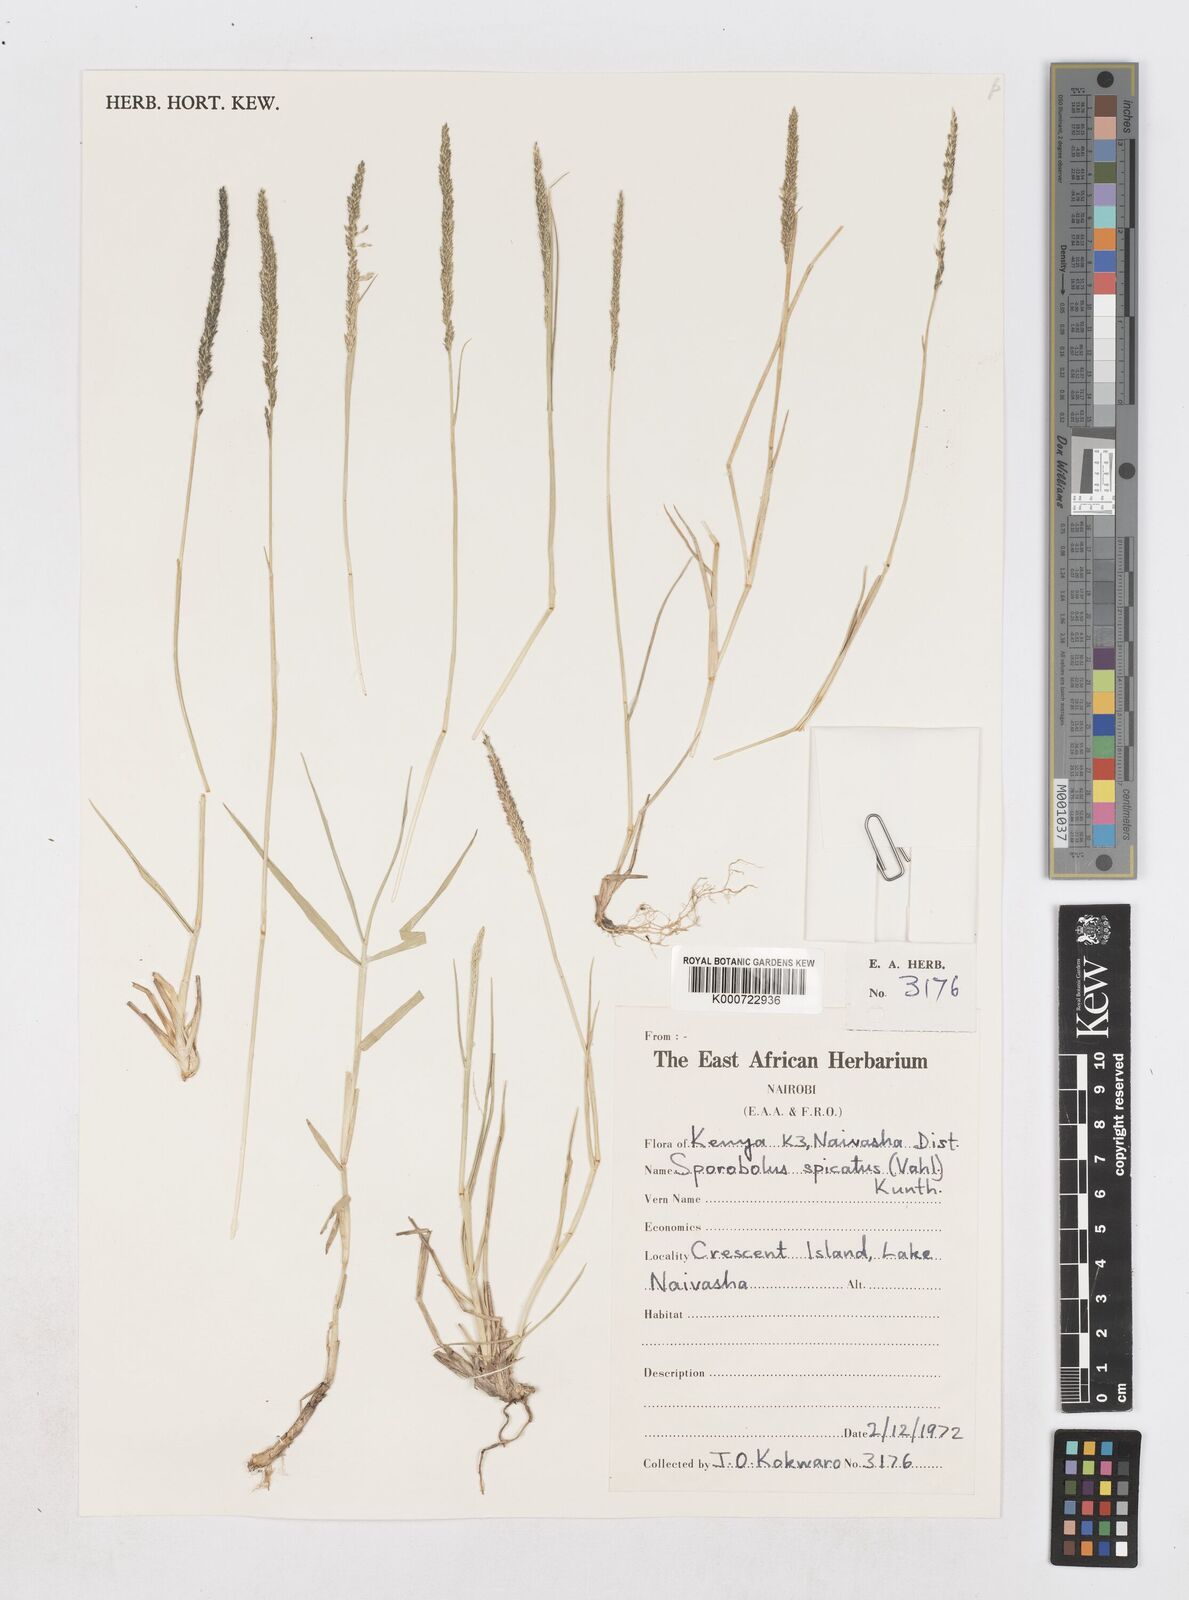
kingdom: Plantae
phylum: Tracheophyta
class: Liliopsida
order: Poales
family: Poaceae
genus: Sporobolus
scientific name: Sporobolus spicatus
